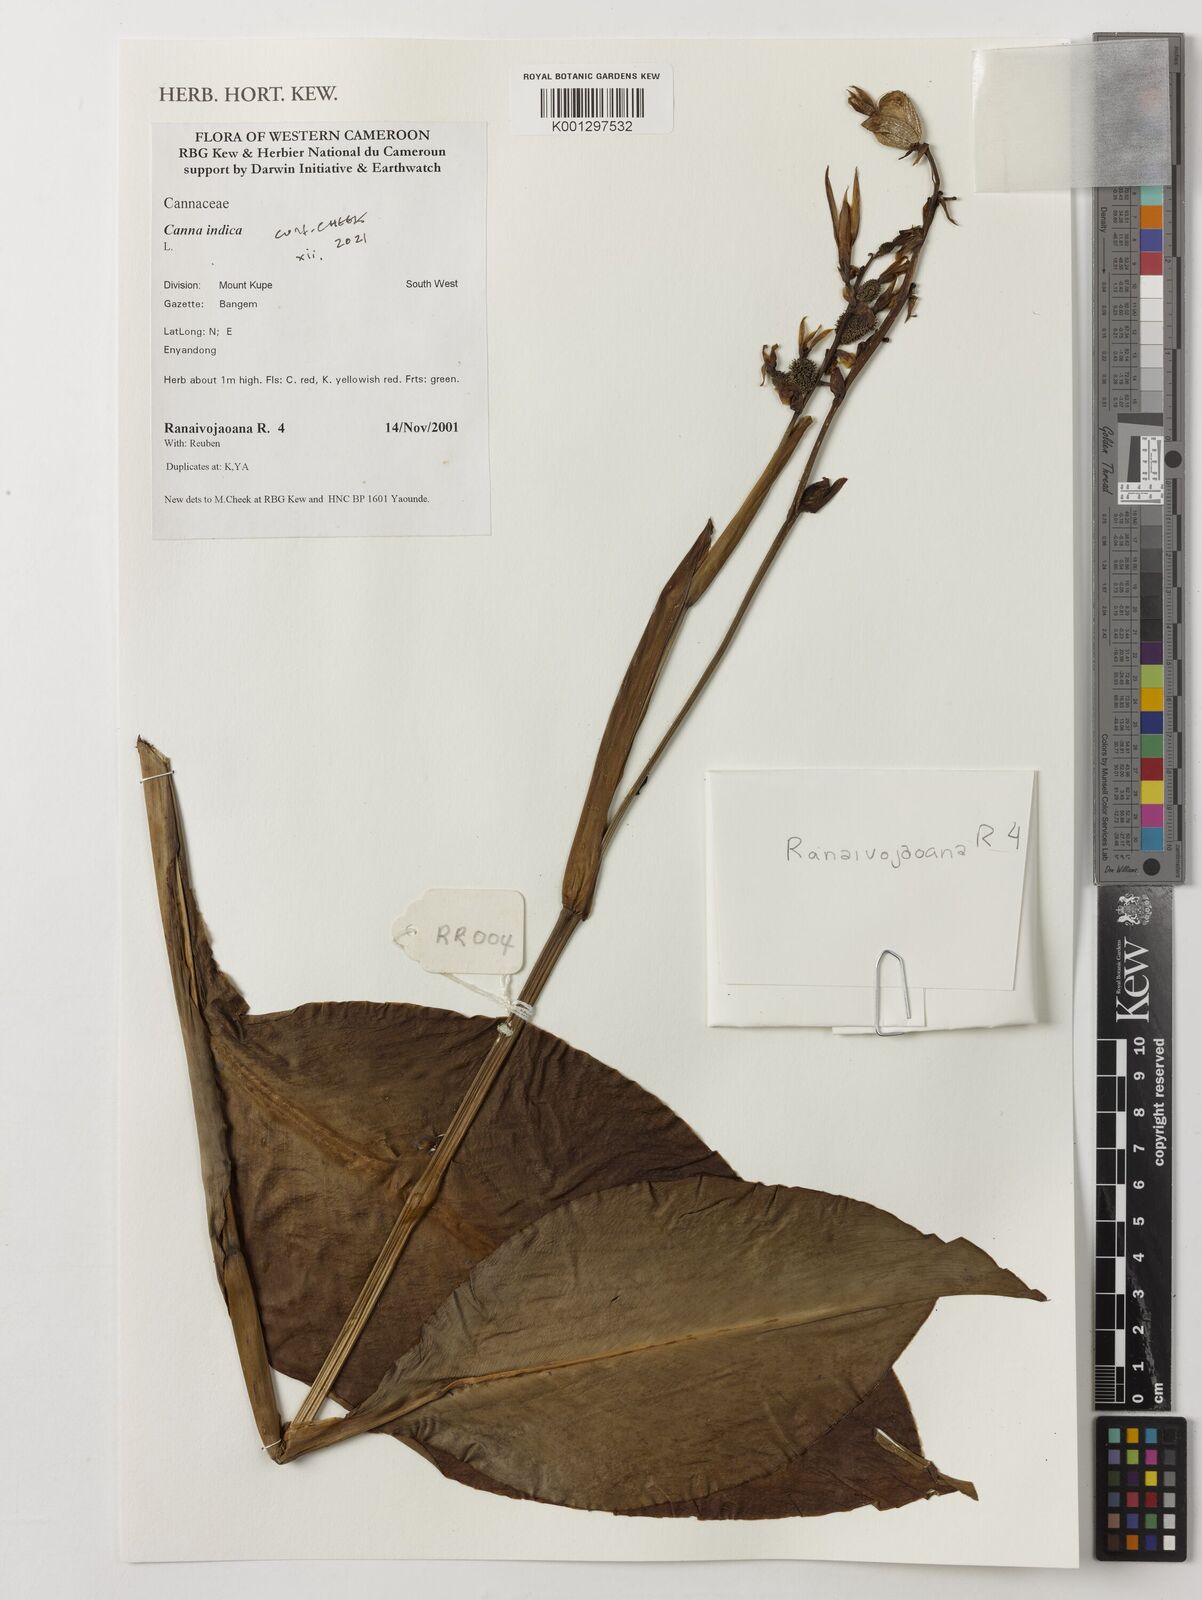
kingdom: Plantae
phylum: Tracheophyta
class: Liliopsida
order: Zingiberales
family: Cannaceae
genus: Canna
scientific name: Canna indica
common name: Indian shot
